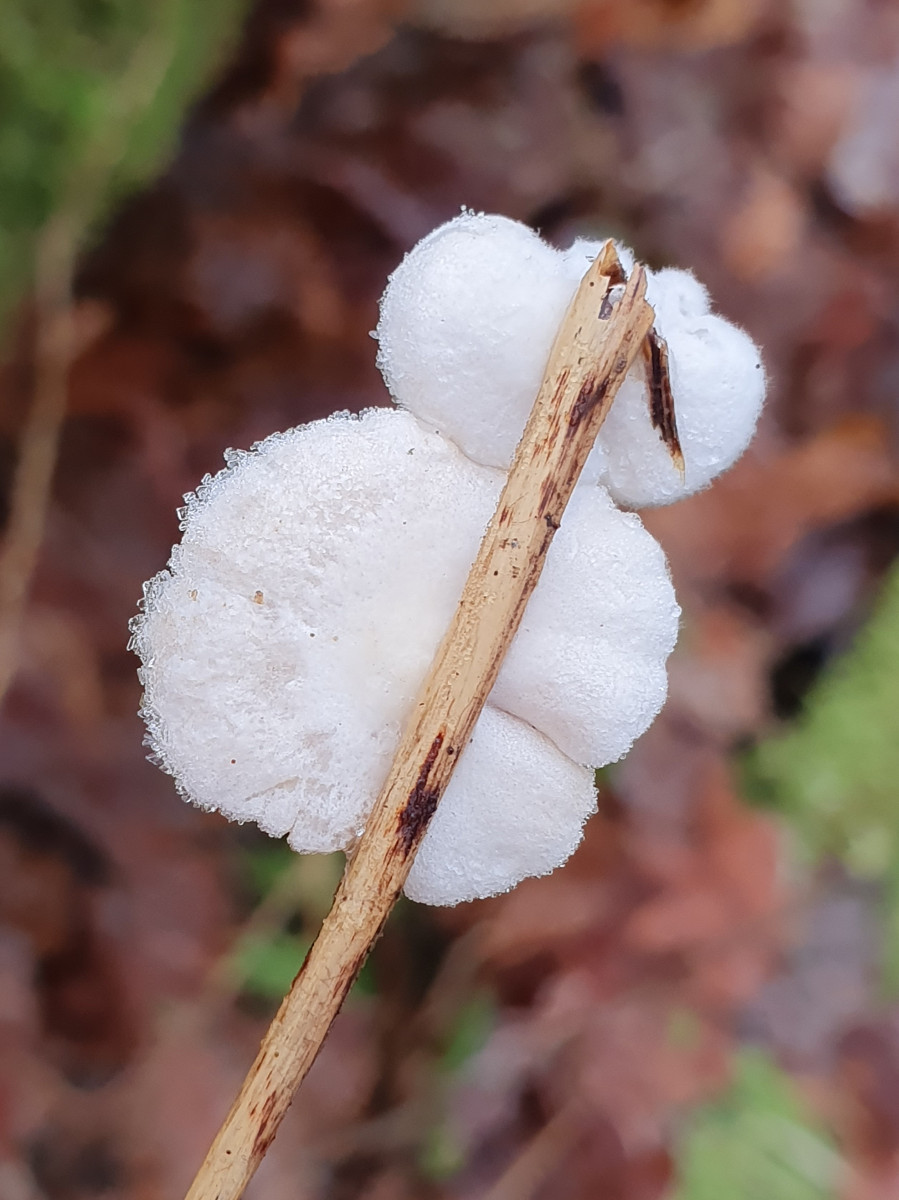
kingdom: Fungi
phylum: Basidiomycota
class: Agaricomycetes
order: Agaricales
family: Crepidotaceae
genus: Crepidotus
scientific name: Crepidotus
